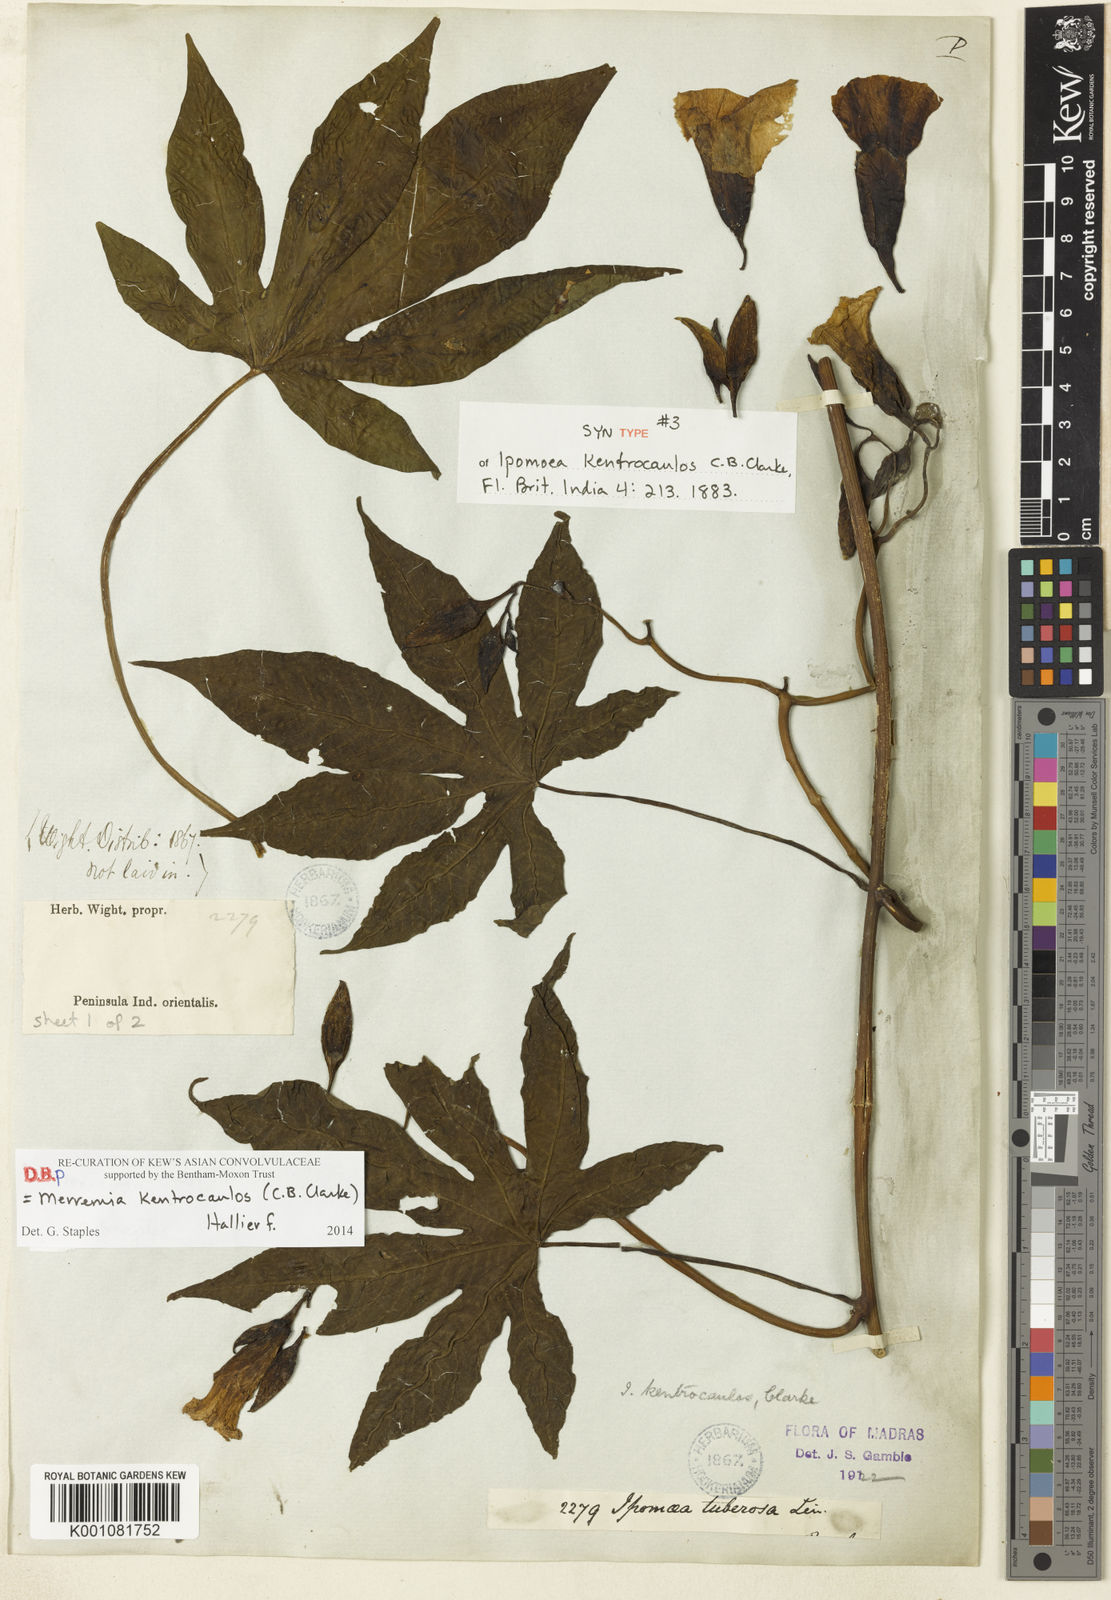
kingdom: Plantae
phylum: Tracheophyta
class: Magnoliopsida
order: Solanales
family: Convolvulaceae
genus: Distimake
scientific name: Distimake
